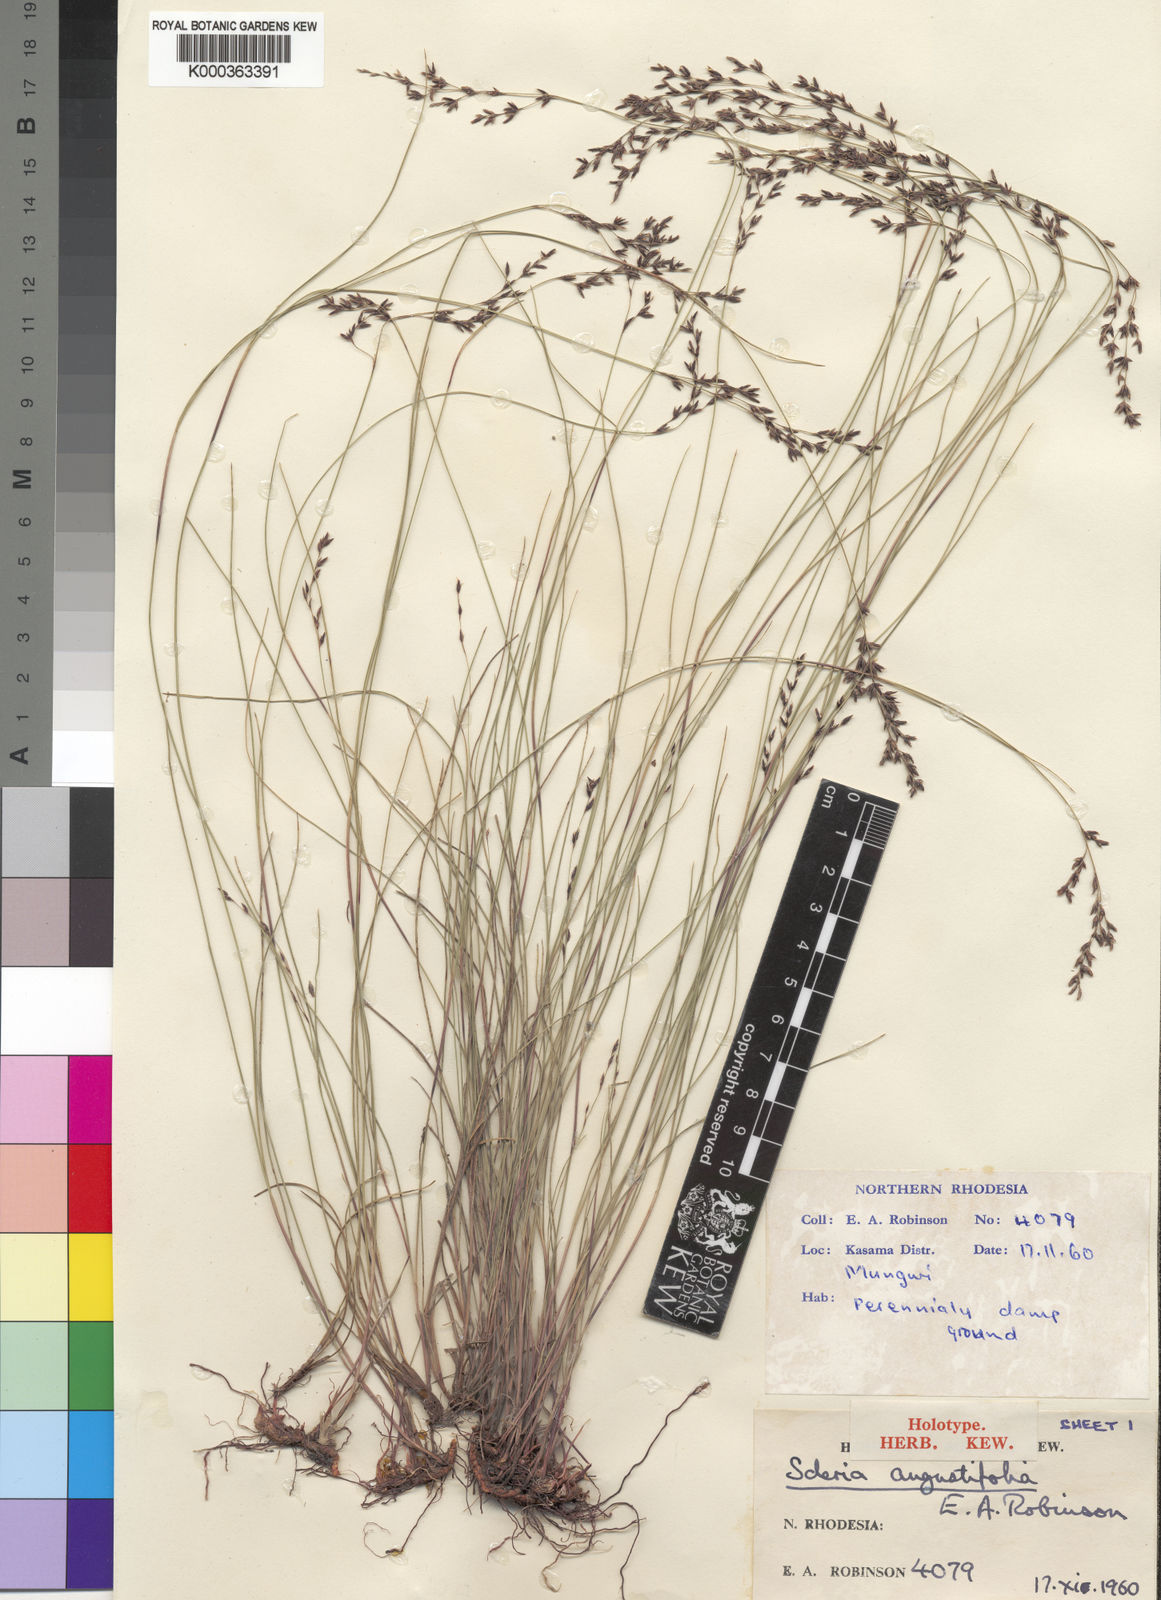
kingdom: Plantae
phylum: Tracheophyta
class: Liliopsida
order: Poales
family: Cyperaceae
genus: Scleria
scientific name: Scleria angustifolia
